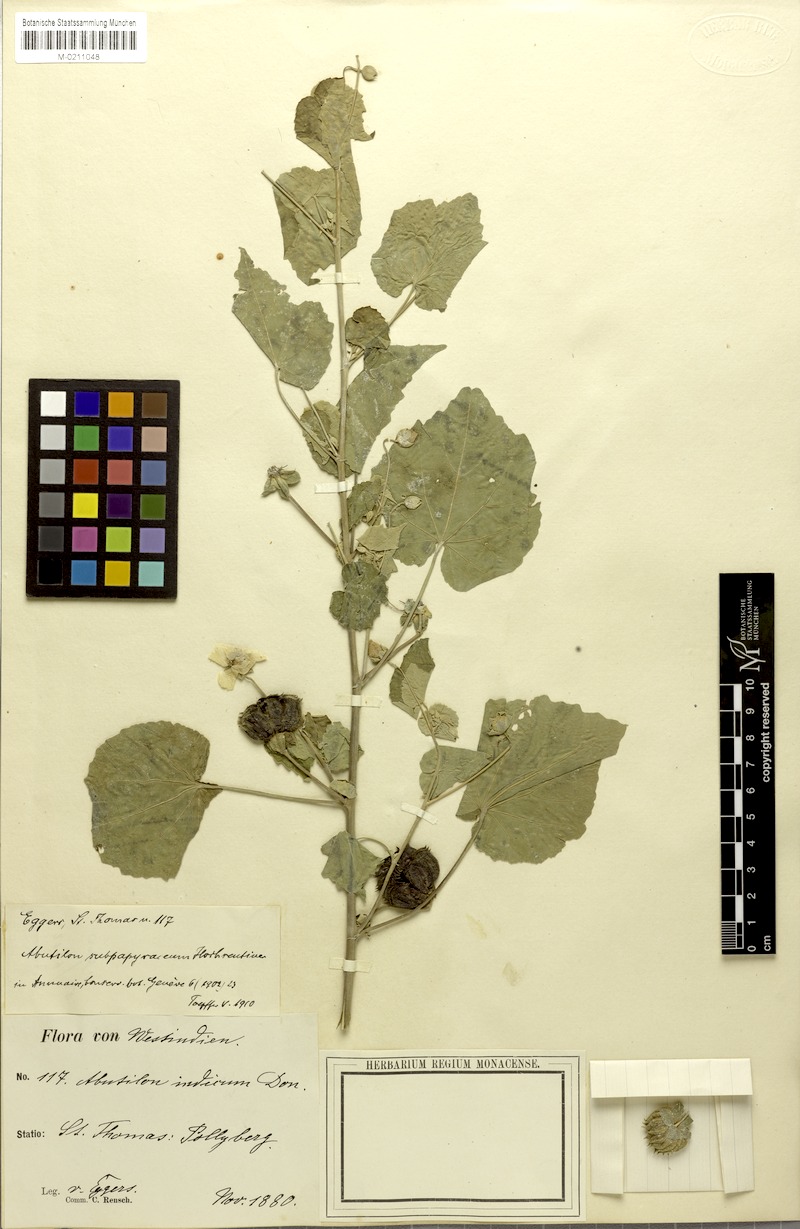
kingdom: Plantae
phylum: Tracheophyta
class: Magnoliopsida
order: Malvales
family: Malvaceae
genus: Abutilon
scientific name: Abutilon indicum
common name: Indian abutilon
